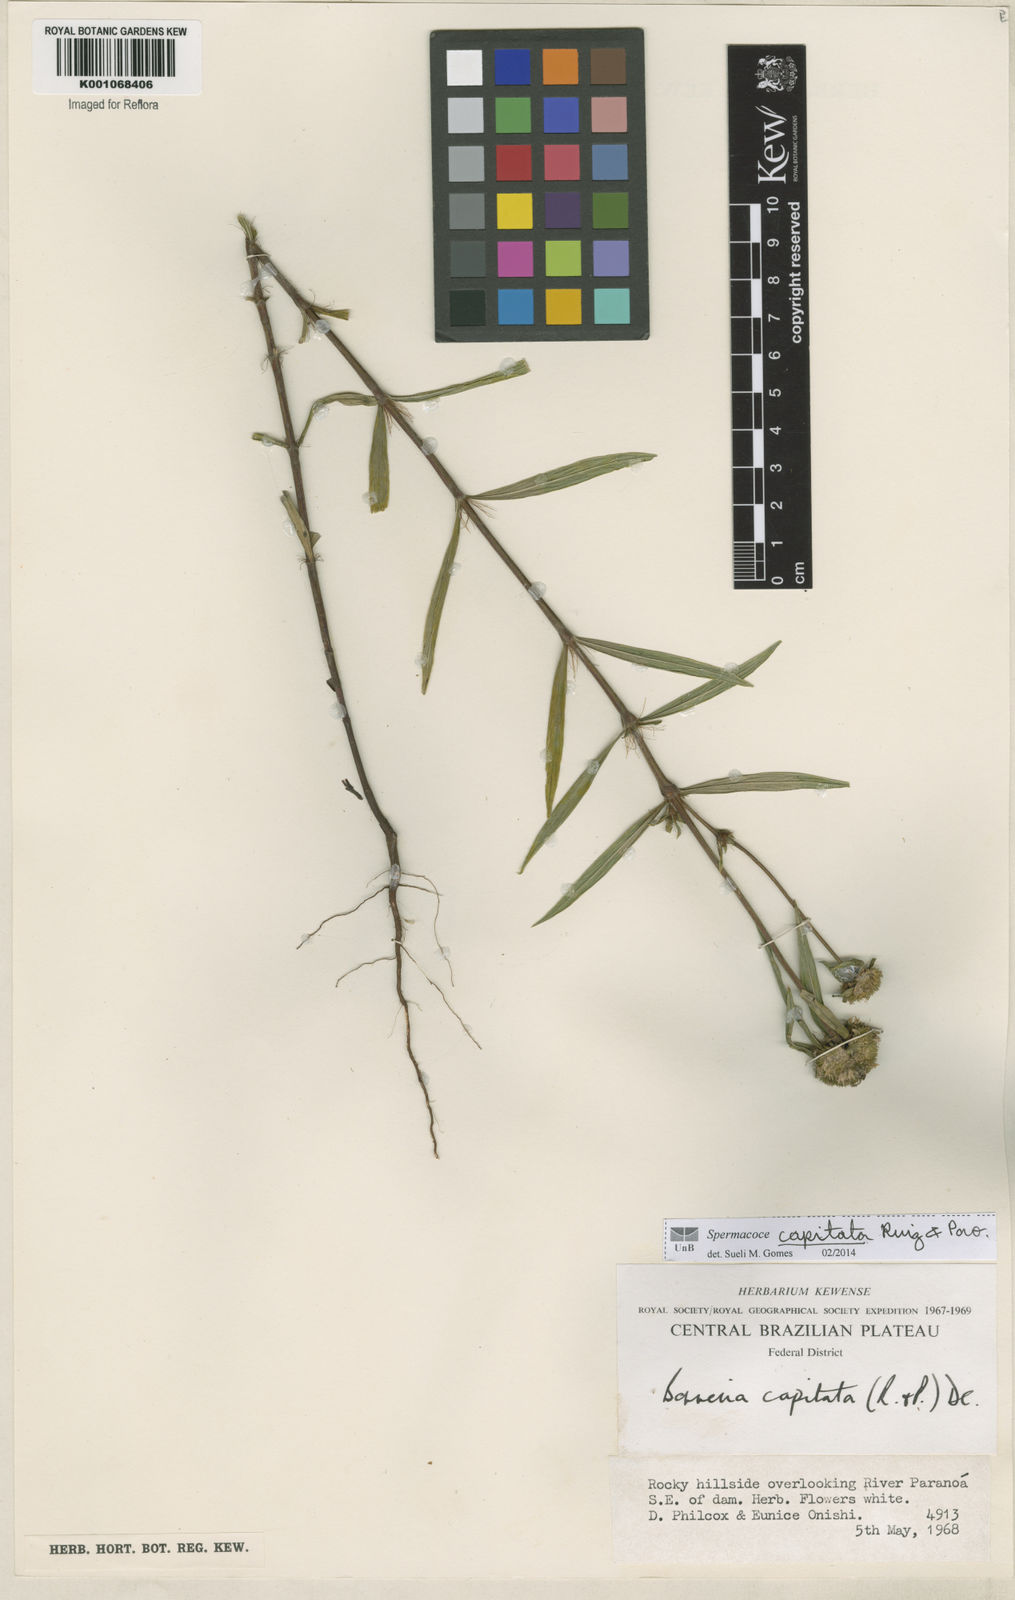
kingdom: Plantae
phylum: Tracheophyta
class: Magnoliopsida
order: Gentianales
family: Rubiaceae
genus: Spermacoce
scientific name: Spermacoce capitata
